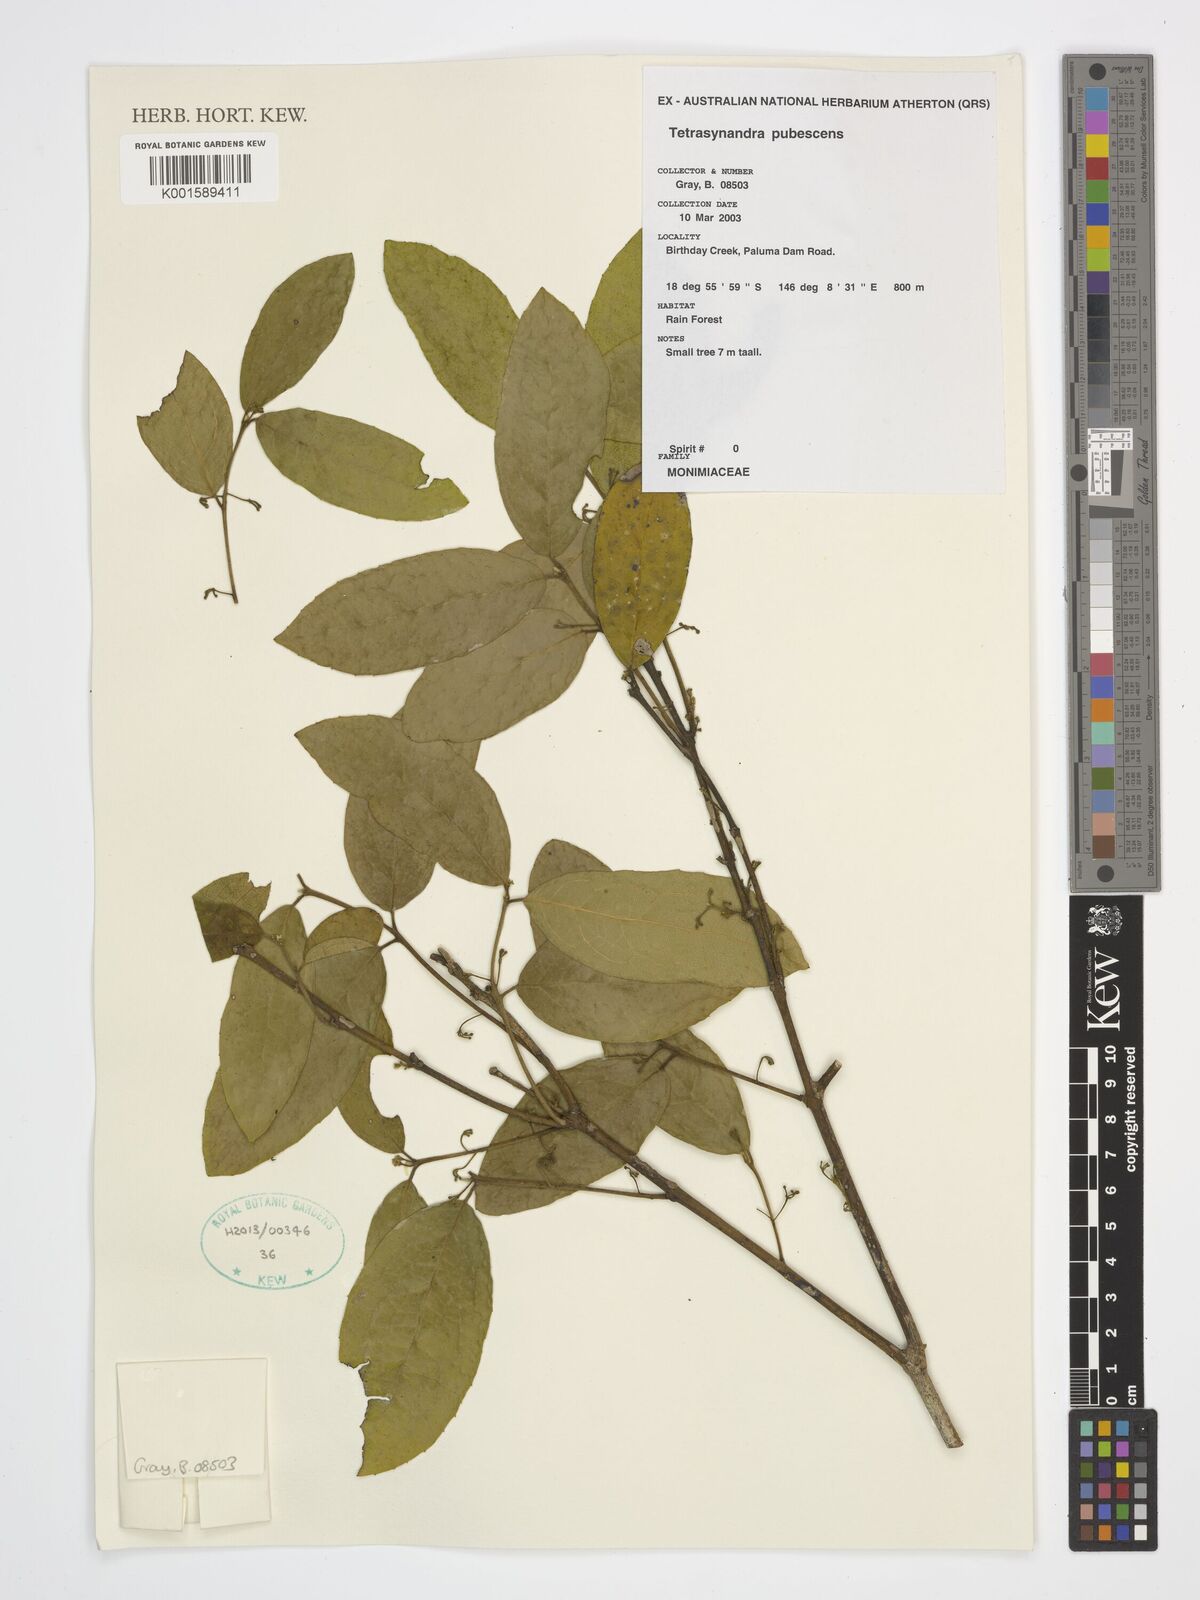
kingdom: Plantae
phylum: Tracheophyta
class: Magnoliopsida
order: Laurales
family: Monimiaceae
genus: Wilkiea
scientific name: Wilkiea pubescens
